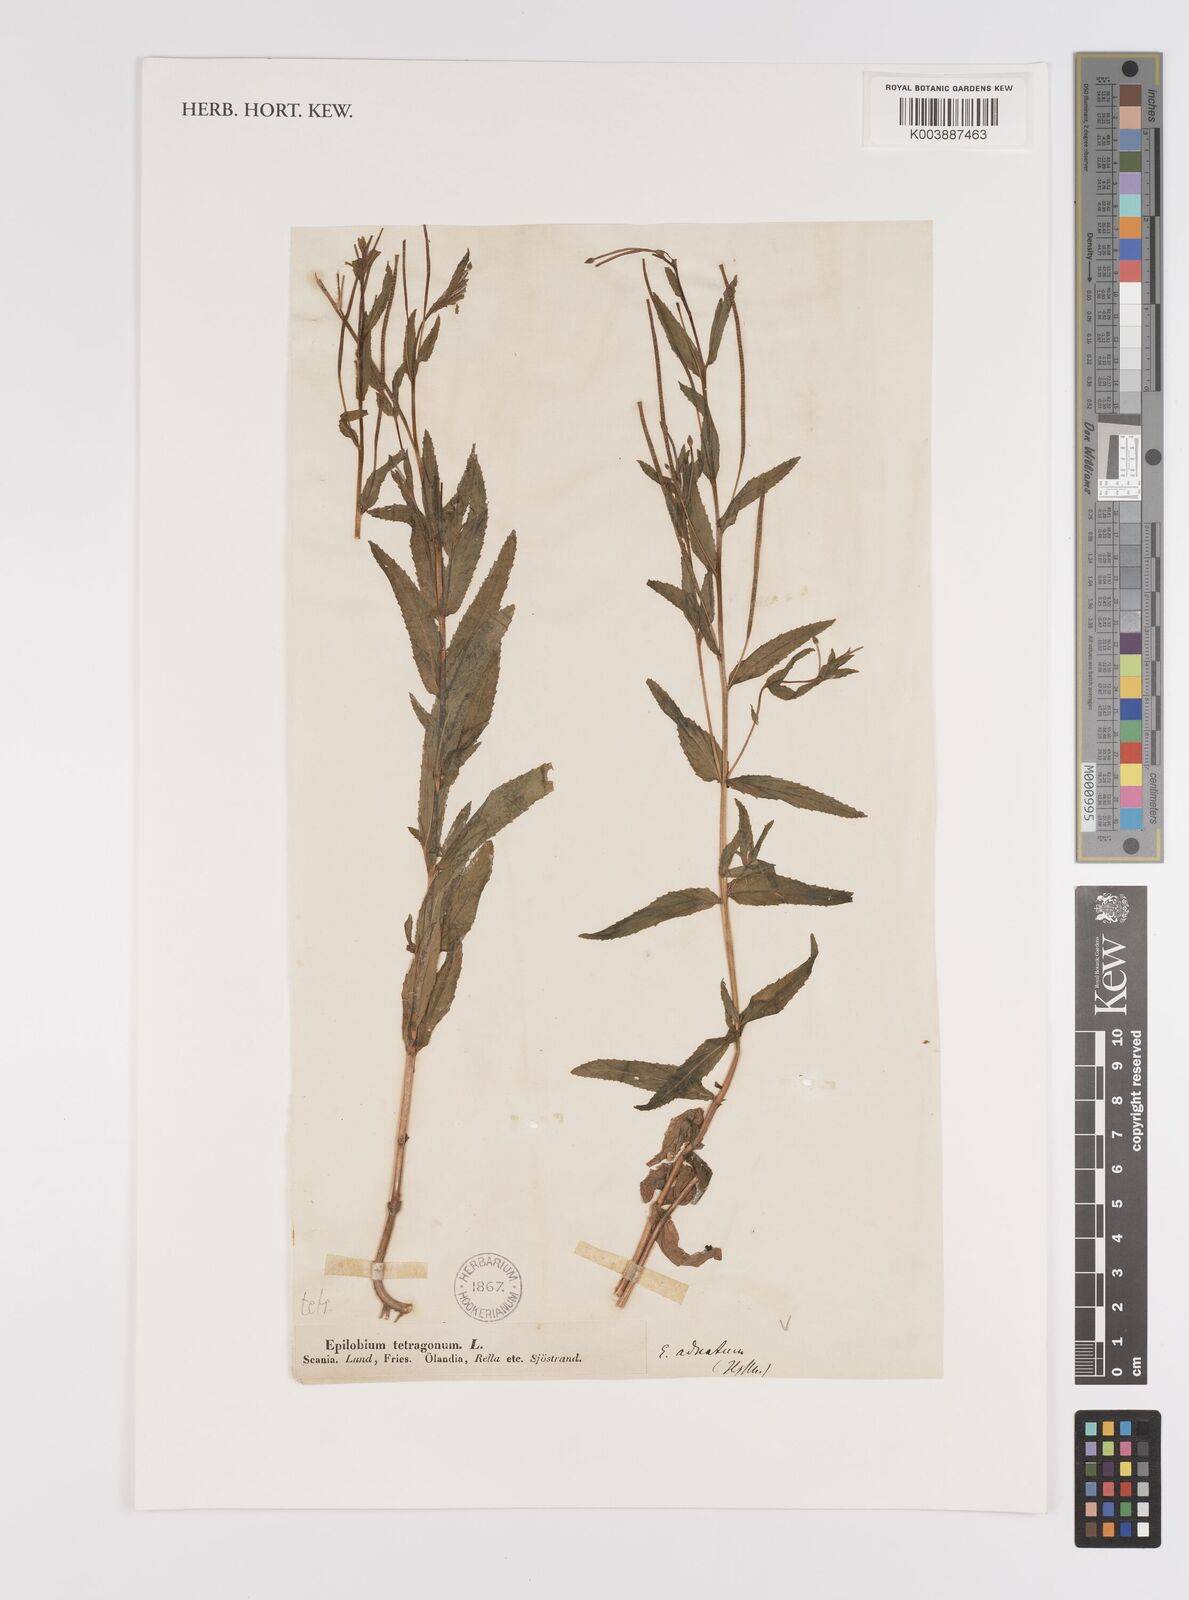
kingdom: Plantae
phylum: Tracheophyta
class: Magnoliopsida
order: Myrtales
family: Onagraceae
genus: Epilobium
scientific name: Epilobium tetragonum
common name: Square-stemmed willowherb
